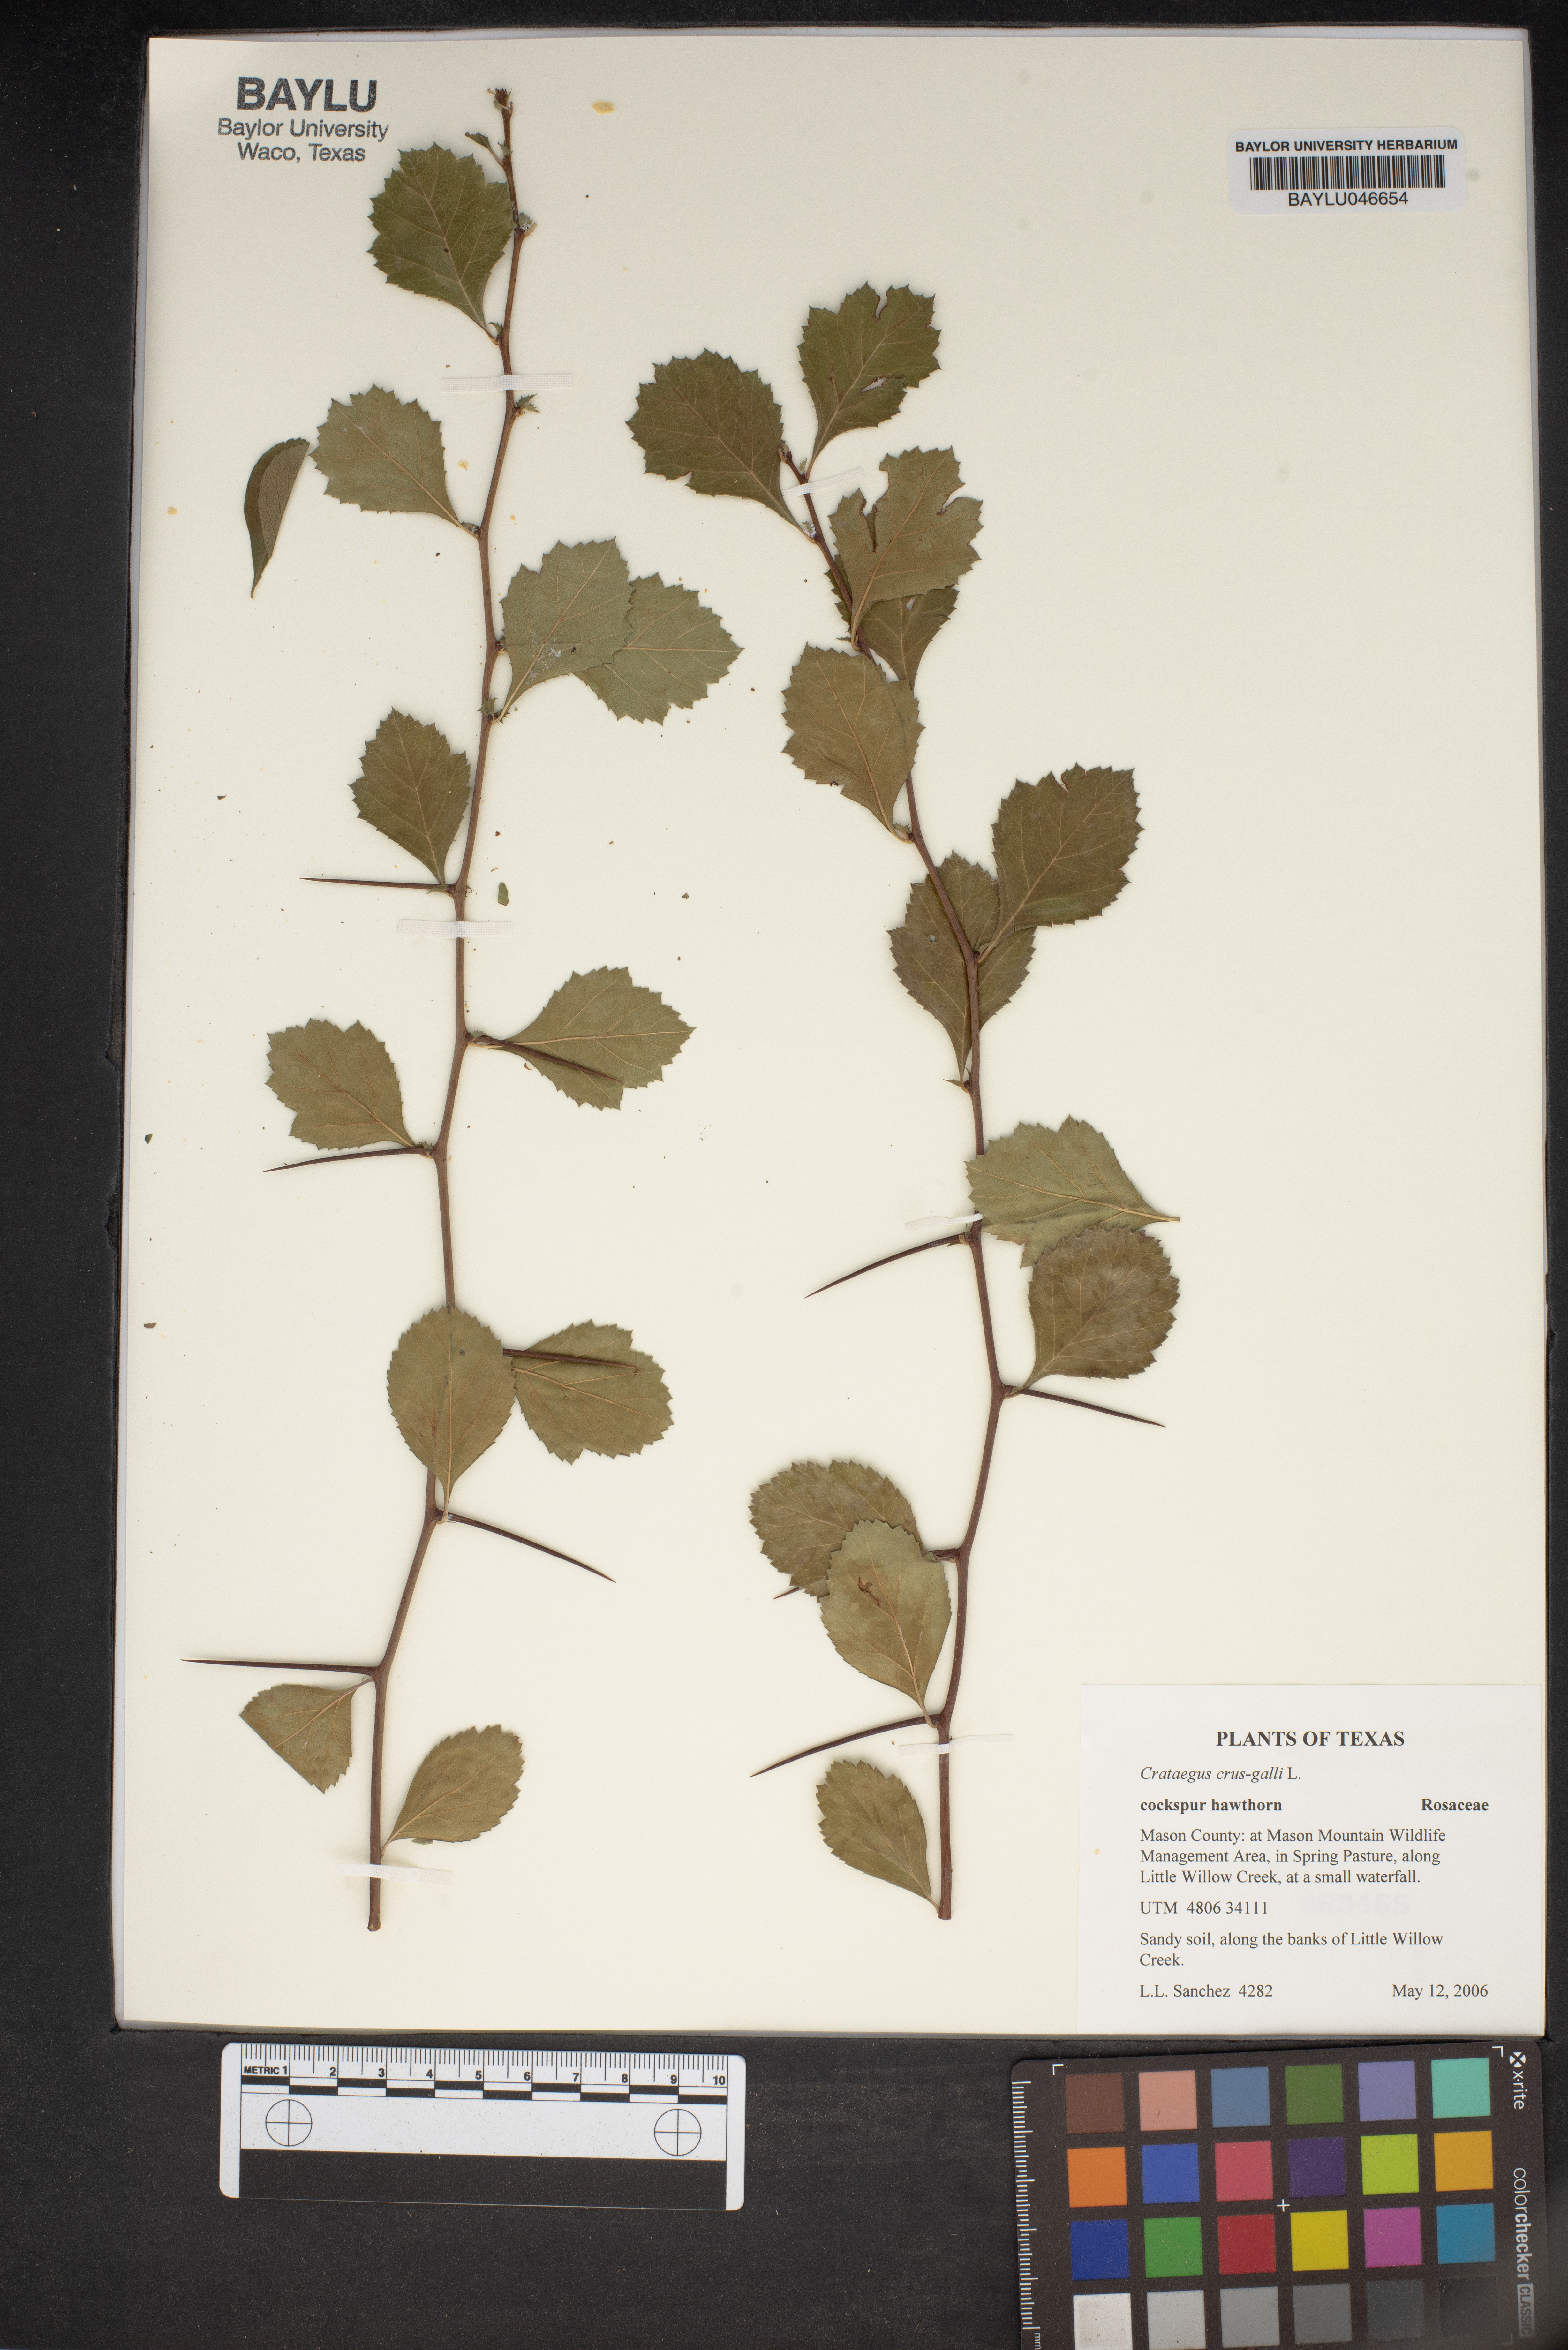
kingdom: Plantae
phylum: Tracheophyta
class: Magnoliopsida
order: Rosales
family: Rosaceae
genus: Crataegus
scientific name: Crataegus crus-galli
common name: Cockspurthorn
